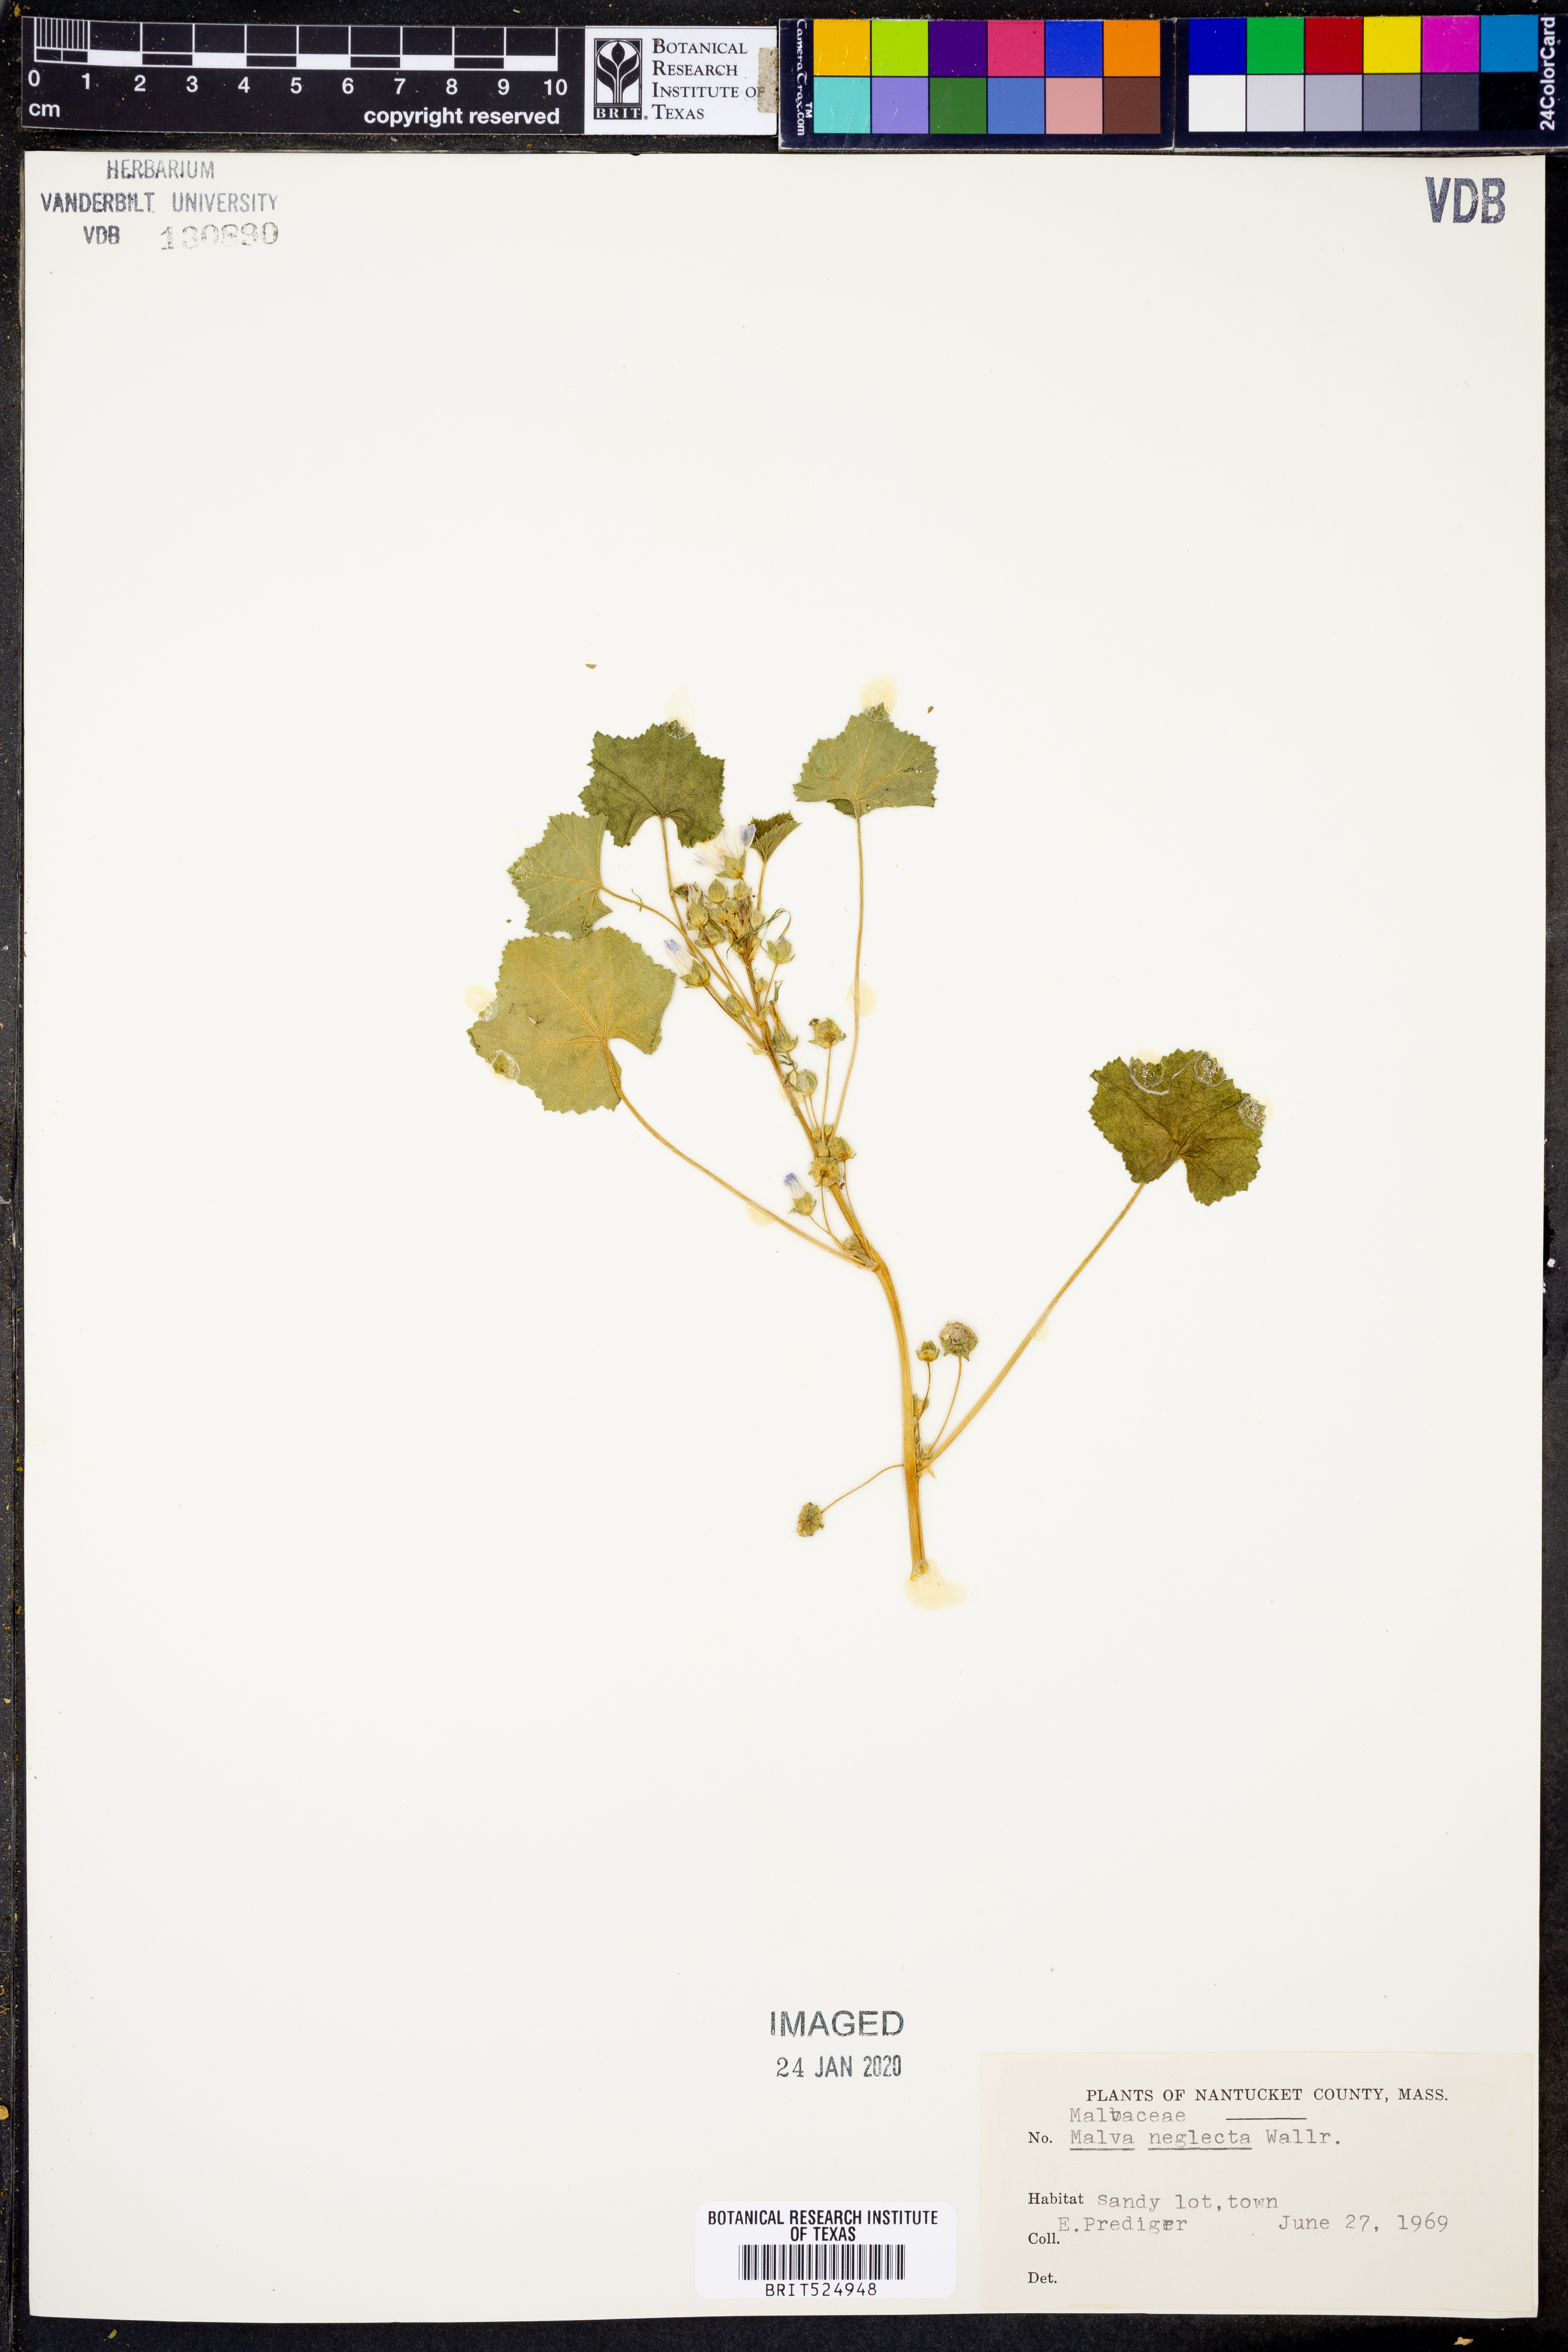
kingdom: Plantae
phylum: Tracheophyta
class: Magnoliopsida
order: Malvales
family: Malvaceae
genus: Malva
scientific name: Malva neglecta
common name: Common mallow
